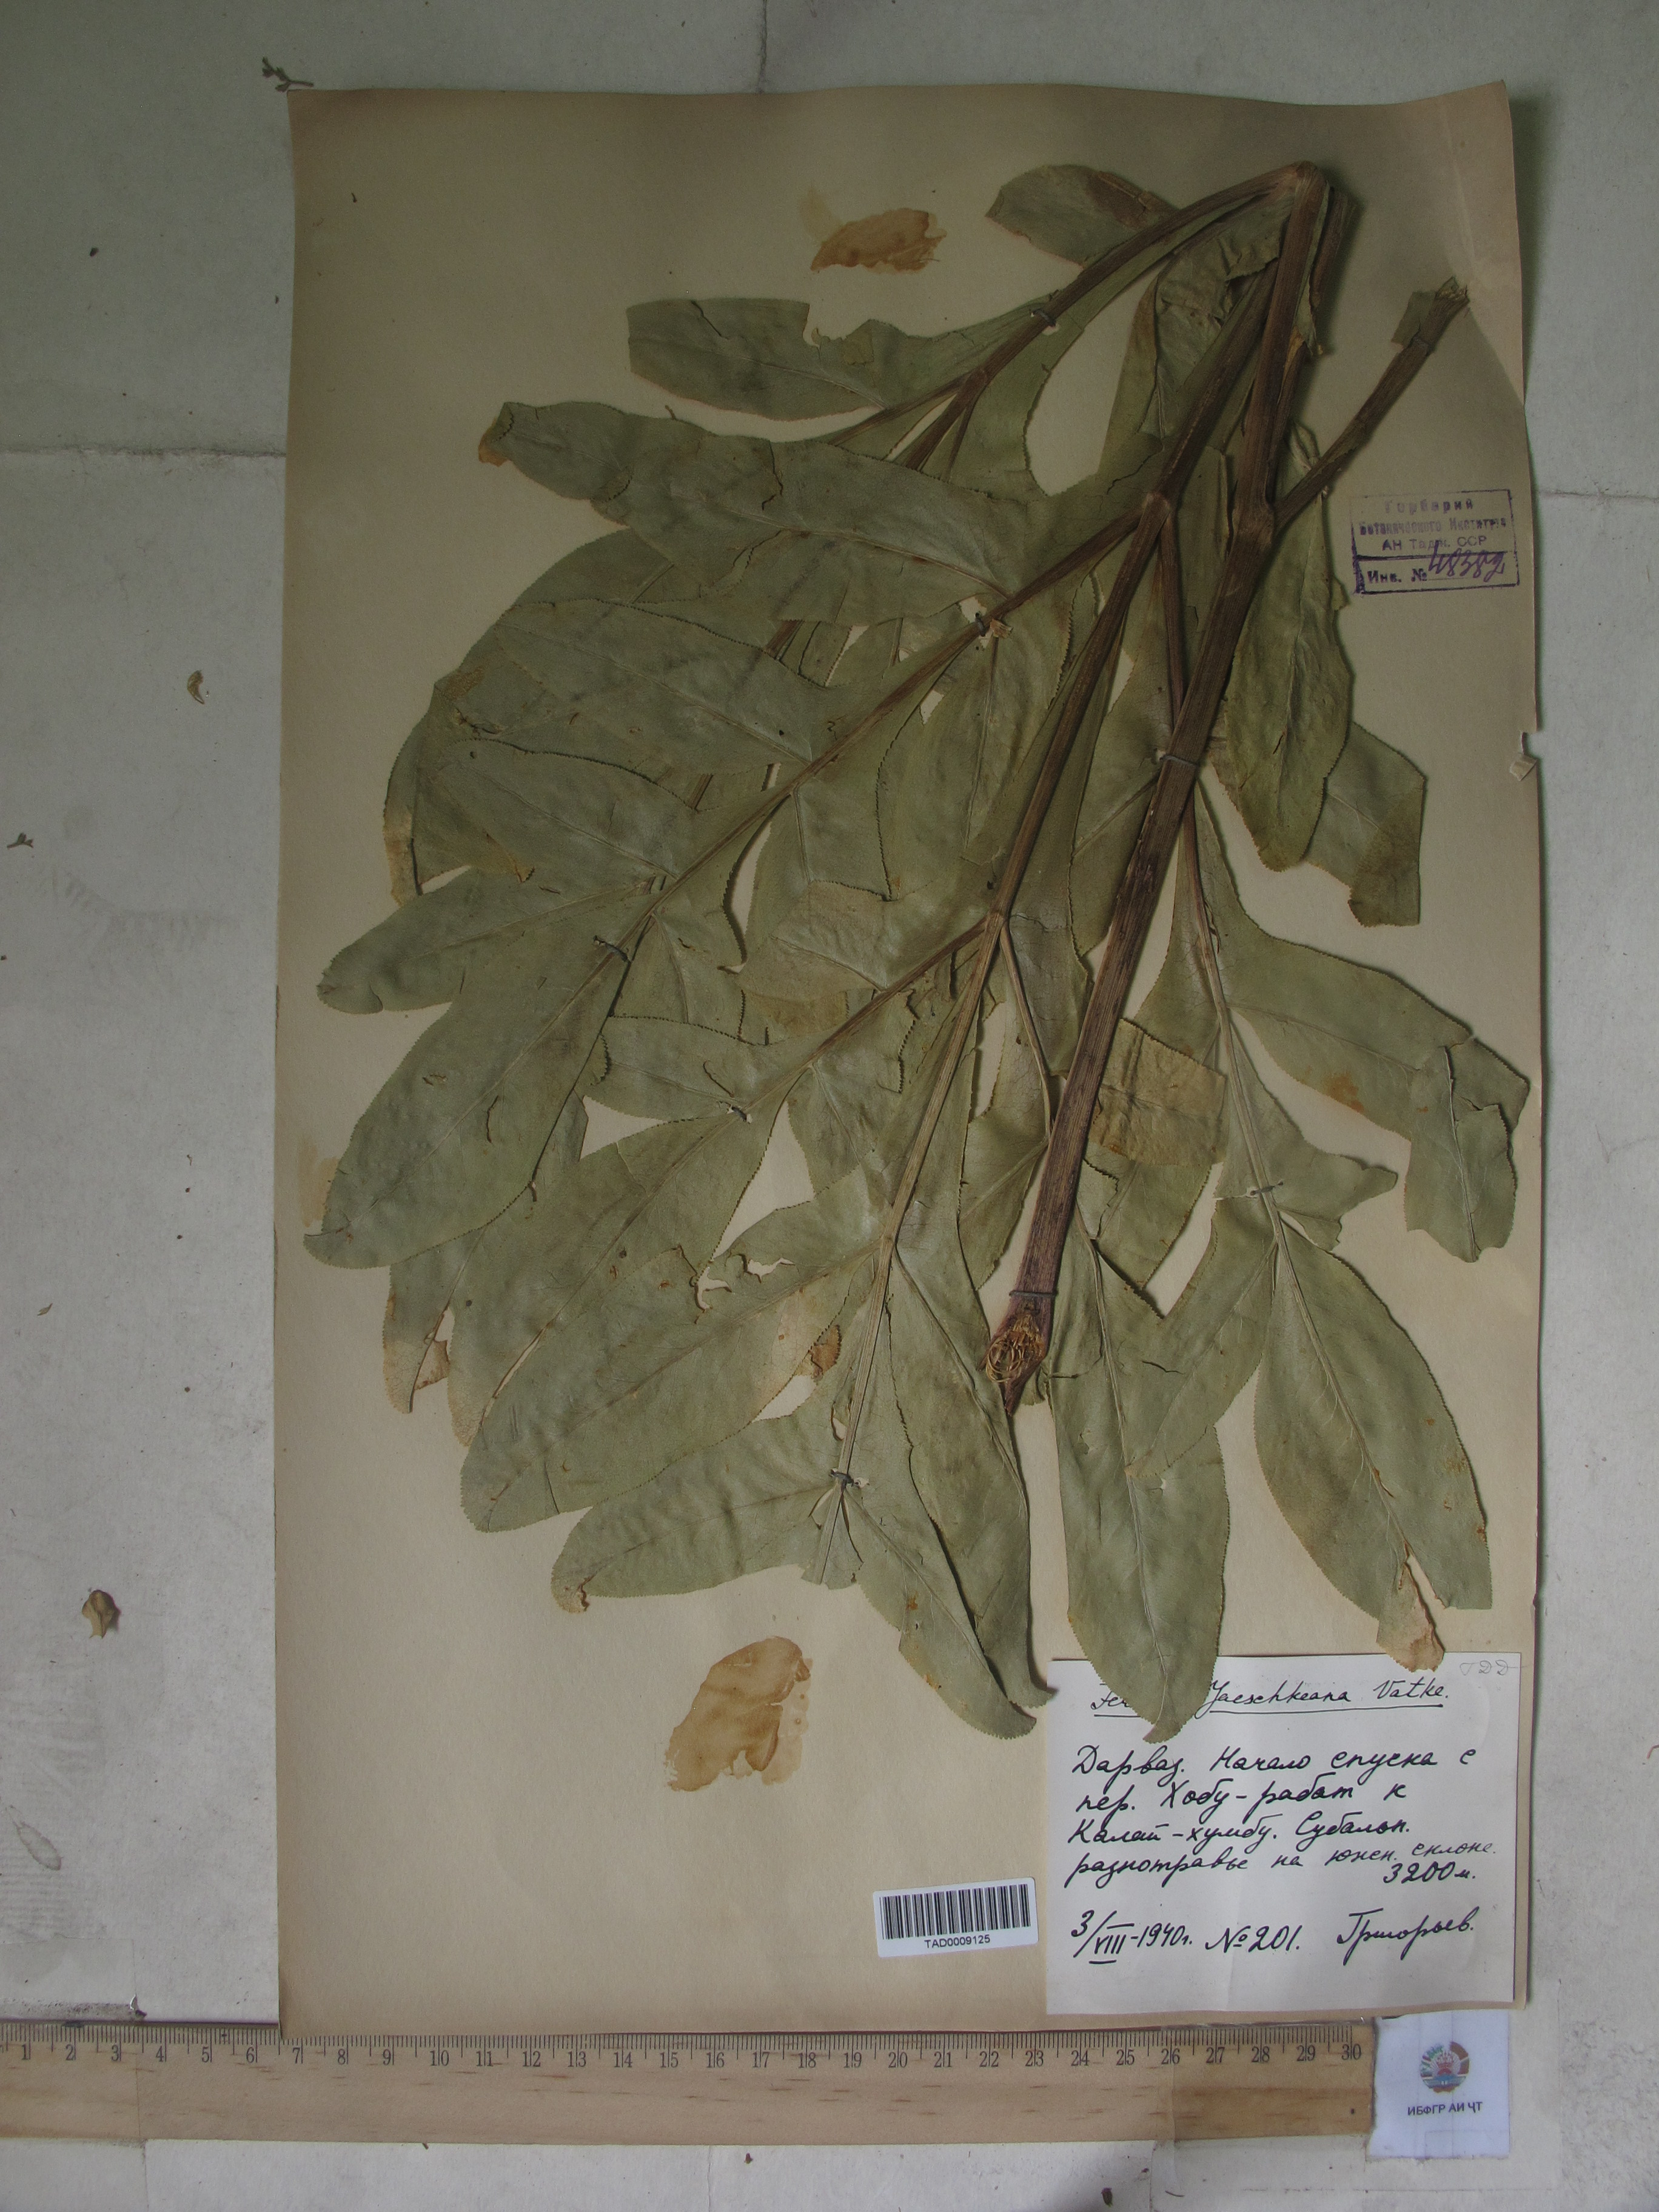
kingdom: Plantae
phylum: Tracheophyta
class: Magnoliopsida
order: Apiales
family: Apiaceae
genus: Ferula
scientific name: Ferula jaeschkeana
